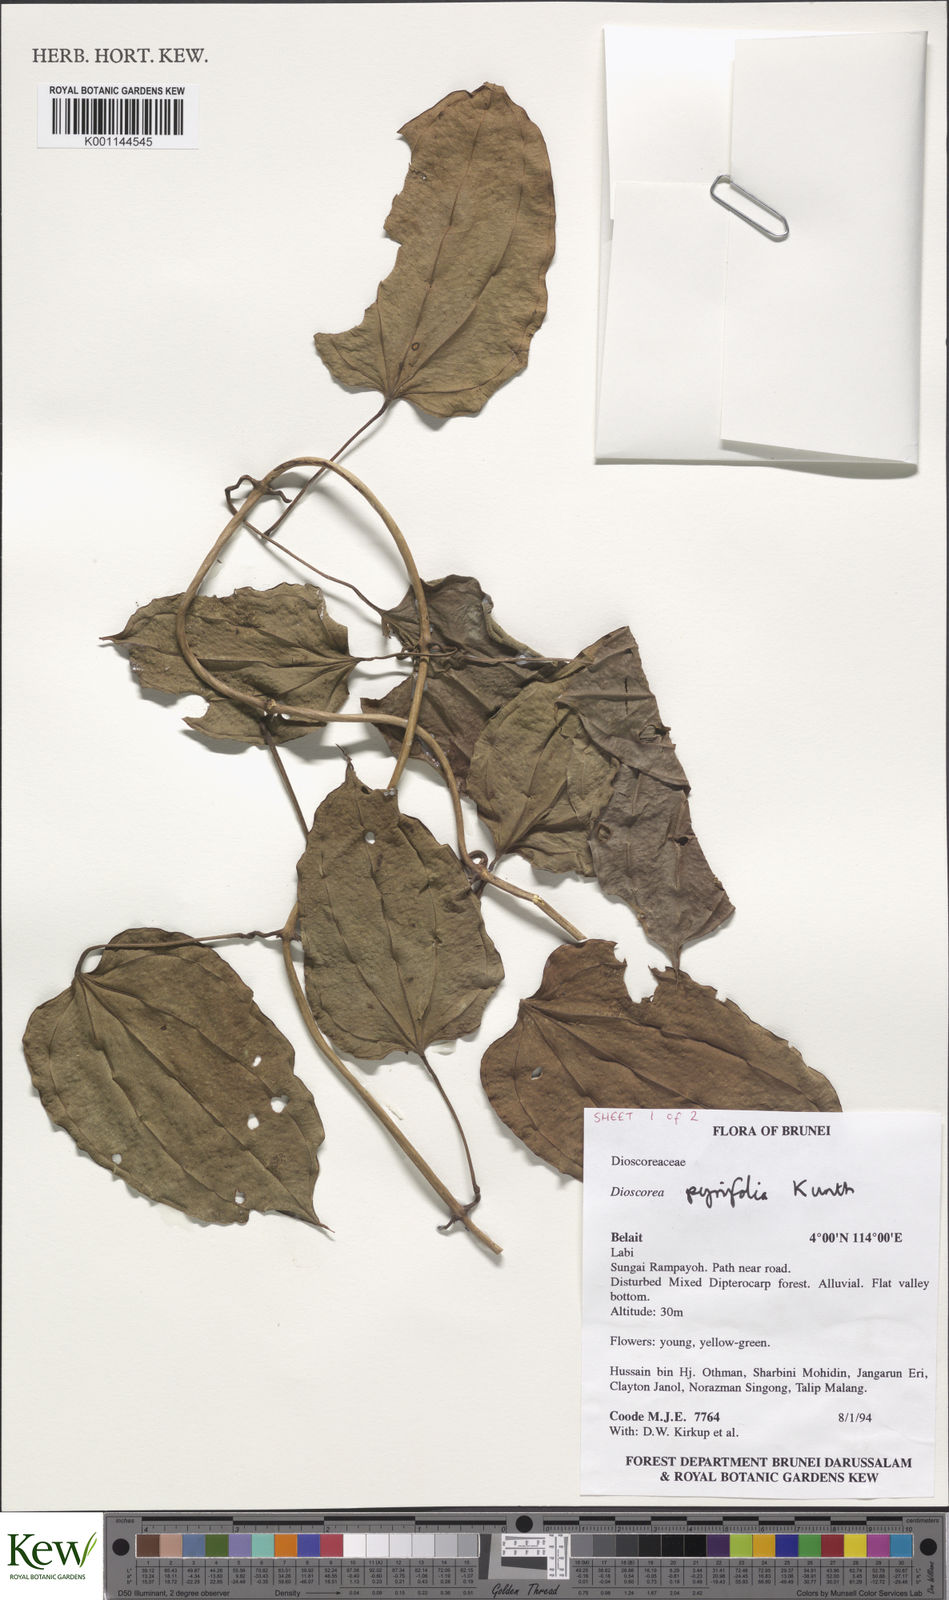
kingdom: Plantae
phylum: Tracheophyta
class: Liliopsida
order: Dioscoreales
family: Dioscoreaceae
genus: Dioscorea
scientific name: Dioscorea pyrifolia
